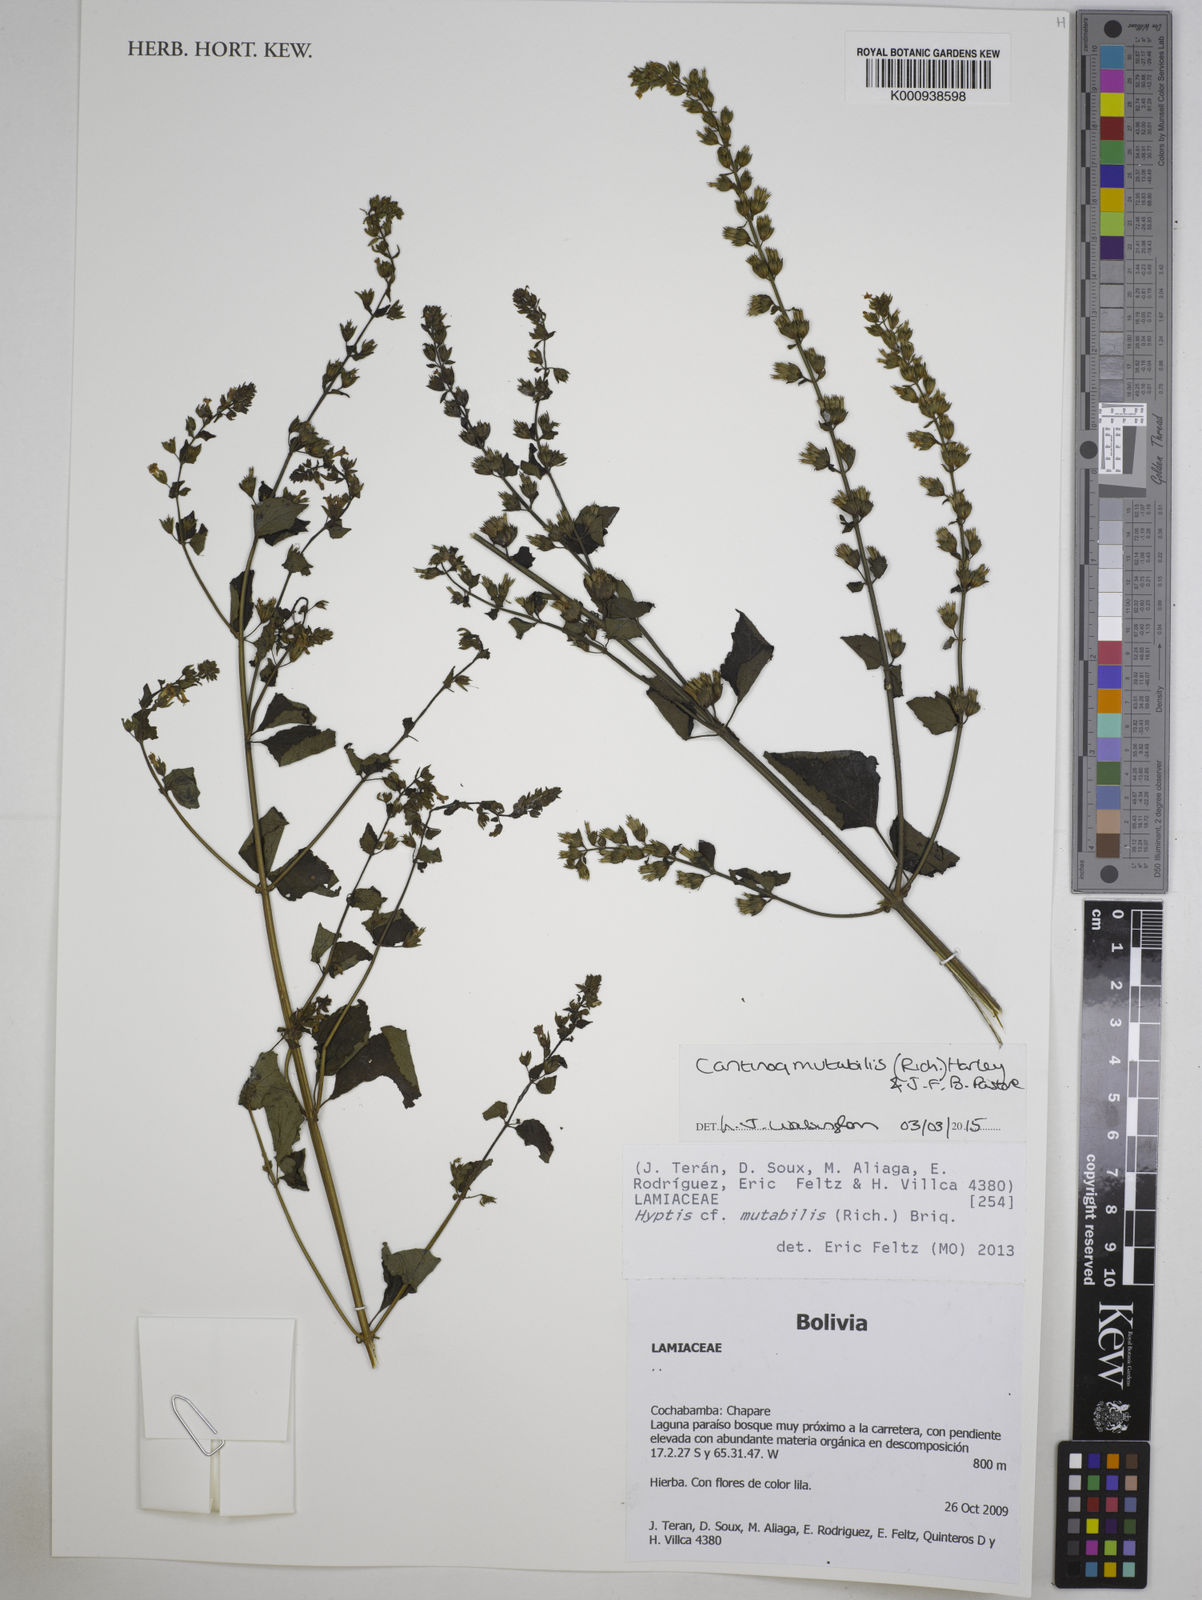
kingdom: Plantae
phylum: Tracheophyta
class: Magnoliopsida
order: Lamiales
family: Lamiaceae
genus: Cantinoa
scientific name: Cantinoa mutabilis
